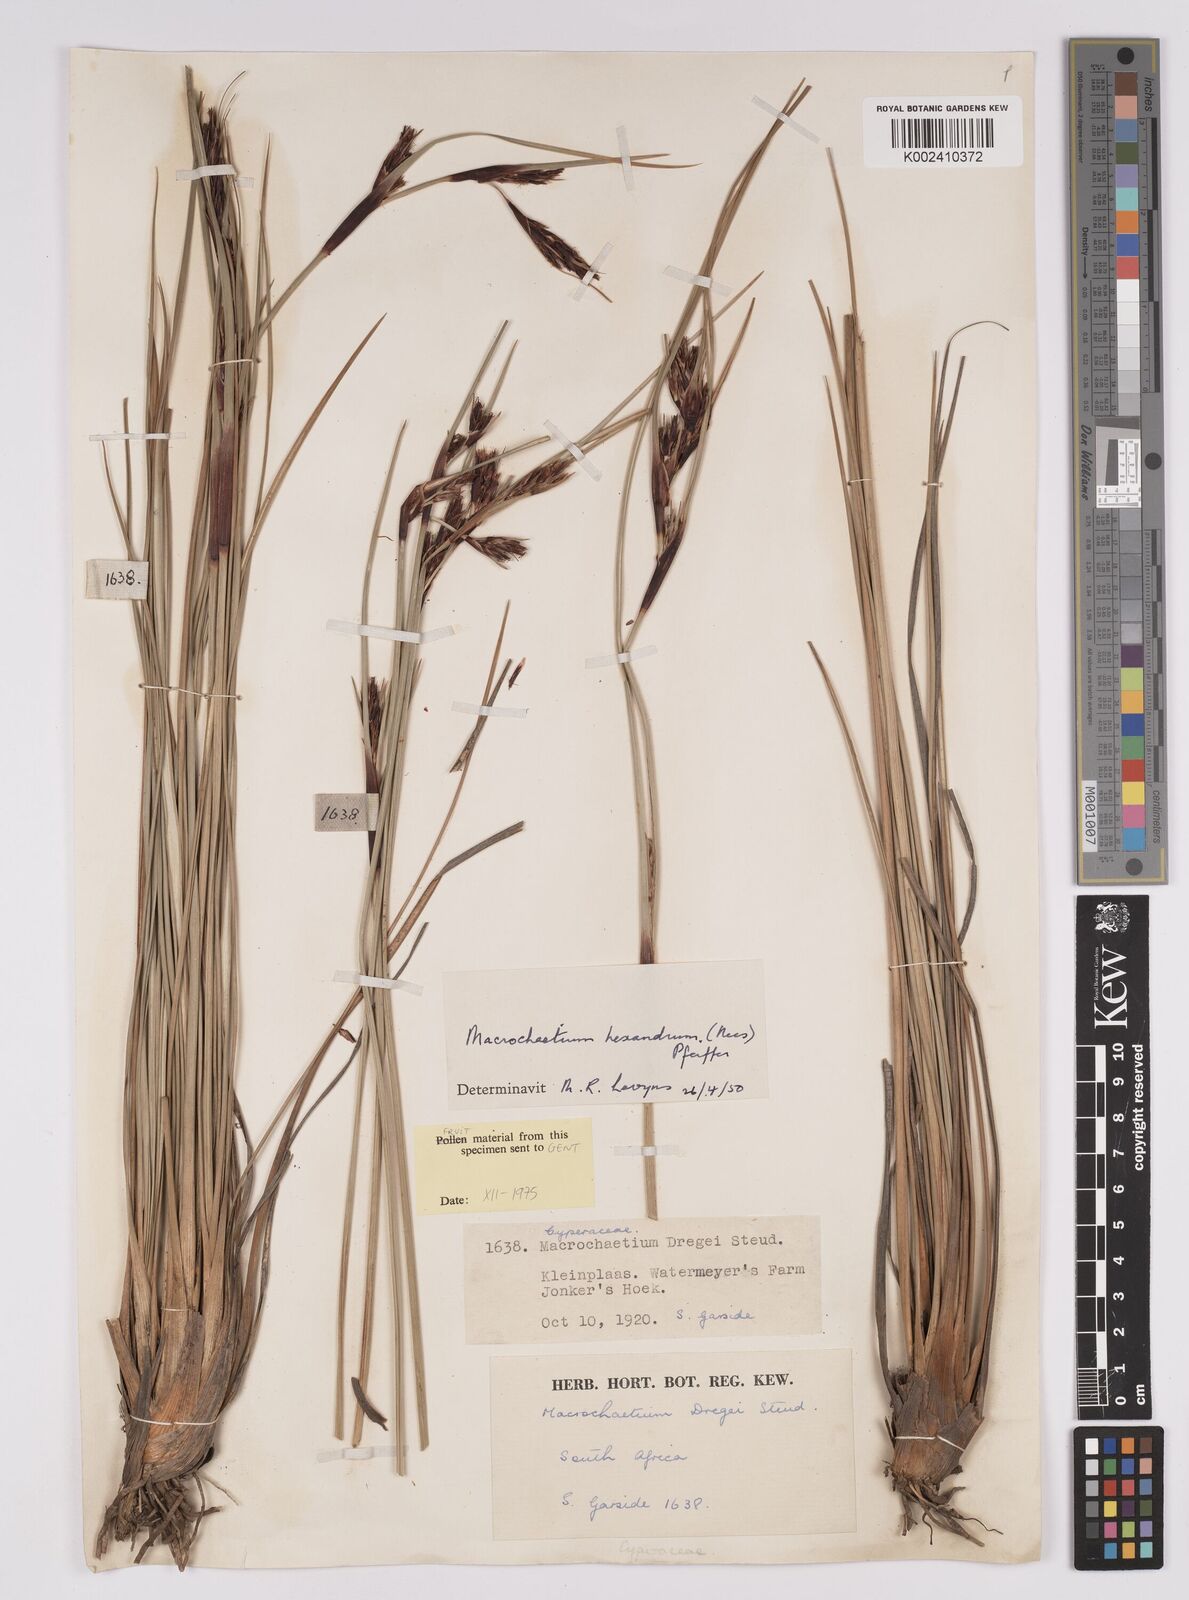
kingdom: Plantae
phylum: Tracheophyta
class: Liliopsida
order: Poales
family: Cyperaceae
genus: Cyathocoma
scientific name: Cyathocoma hexandra
